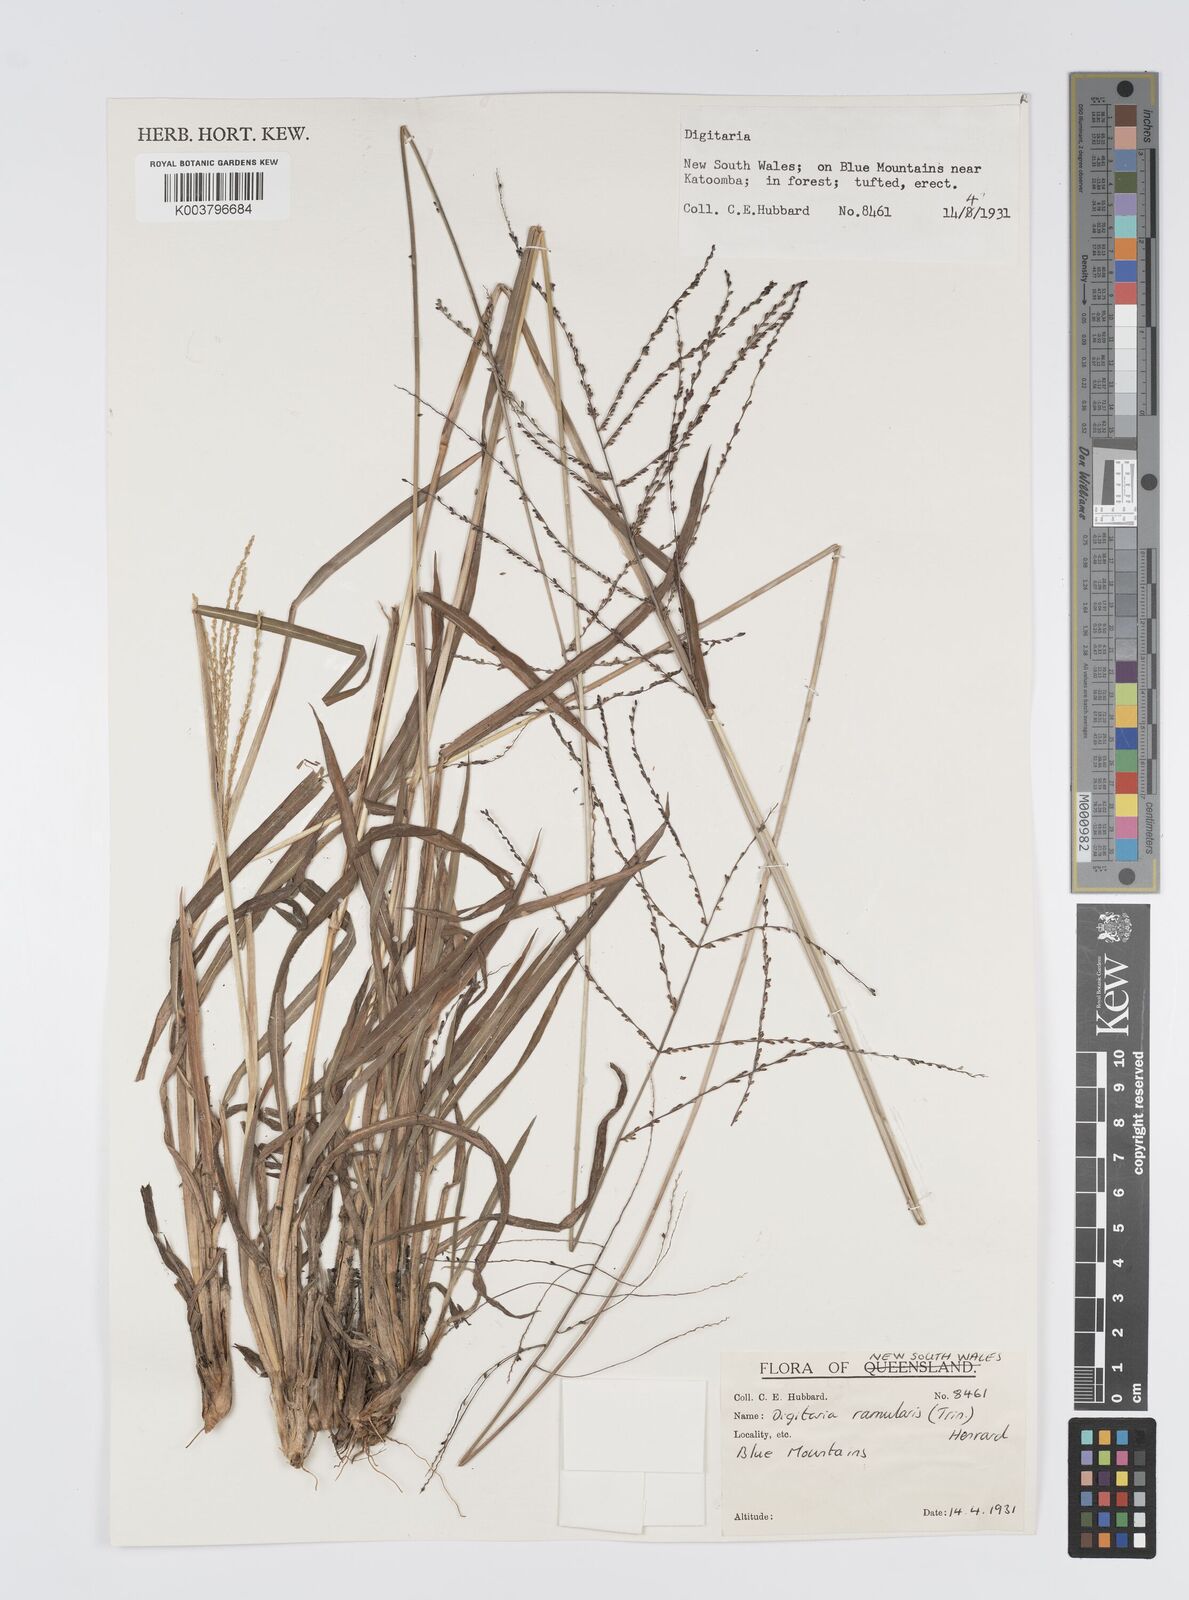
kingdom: Plantae
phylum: Tracheophyta
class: Liliopsida
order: Poales
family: Poaceae
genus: Digitaria
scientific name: Digitaria ramularis
